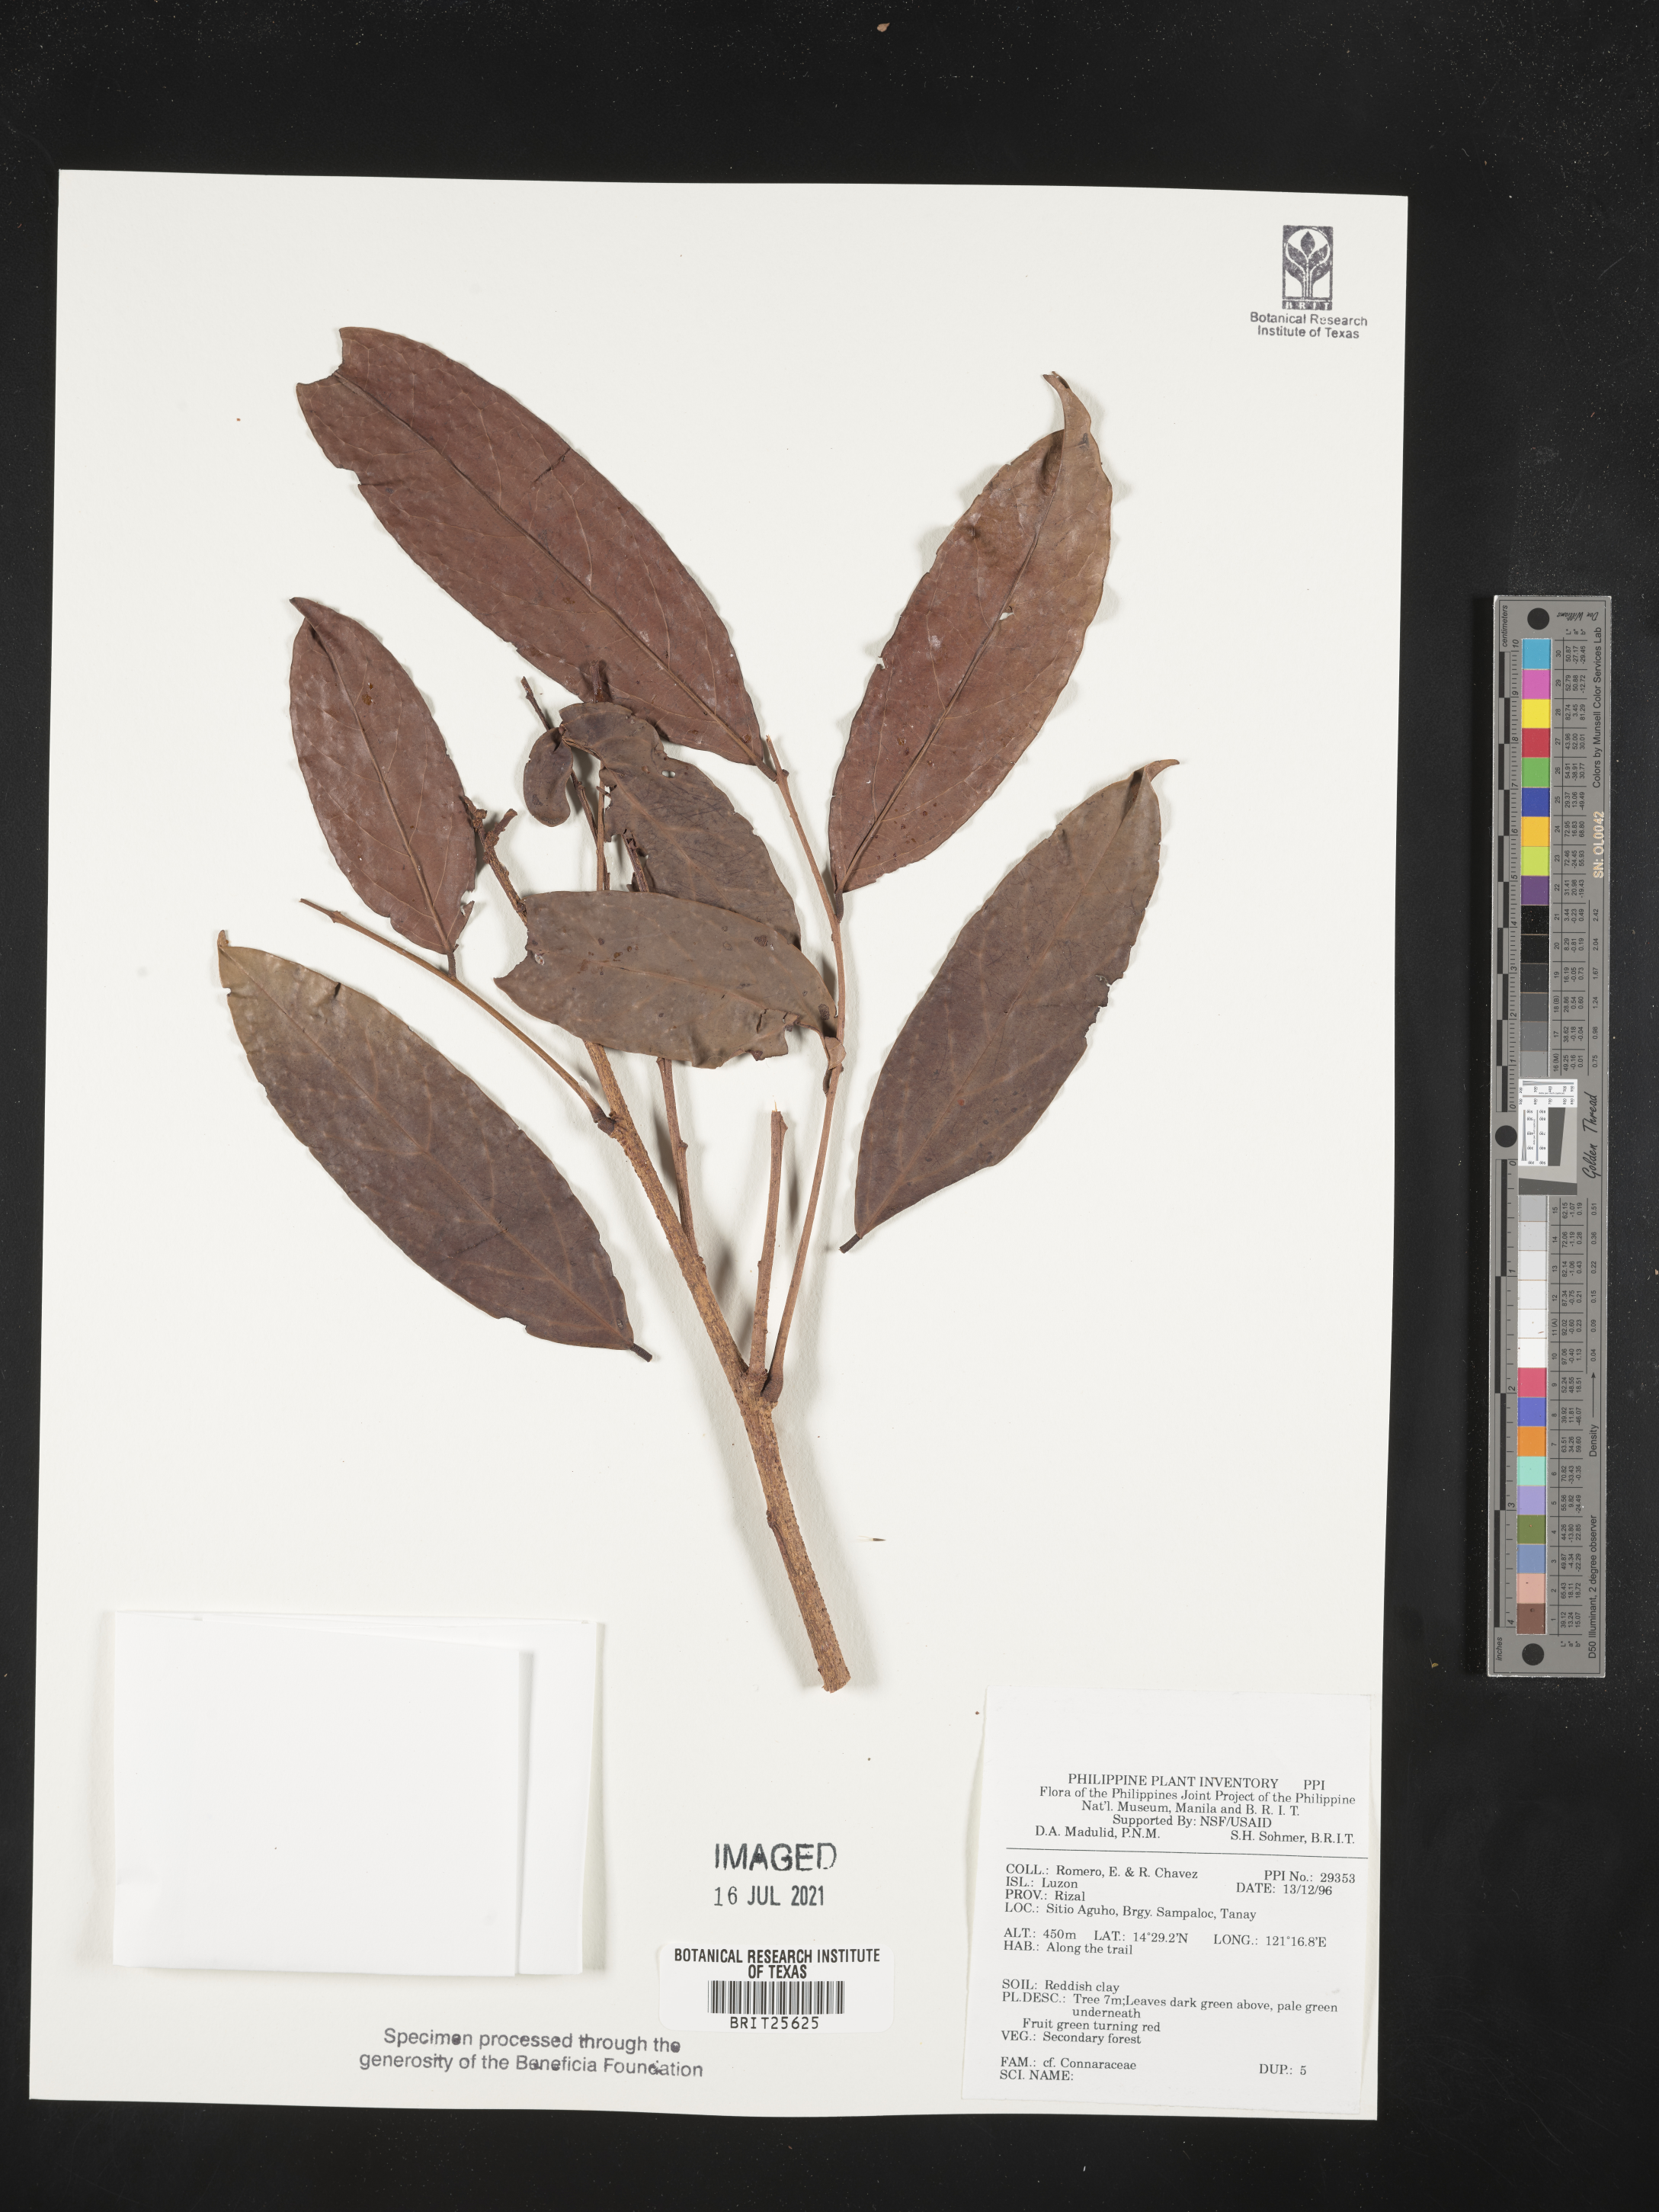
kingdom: Plantae
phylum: Tracheophyta
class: Magnoliopsida
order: Oxalidales
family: Connaraceae
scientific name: Connaraceae
